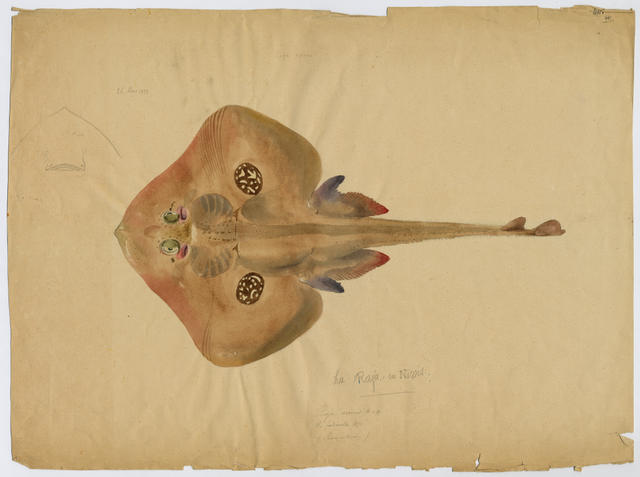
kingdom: Animalia
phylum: Chordata
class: Elasmobranchii
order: Rajiformes
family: Rajidae
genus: Leucoraja
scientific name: Leucoraja naevus
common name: Cuckoo ray
